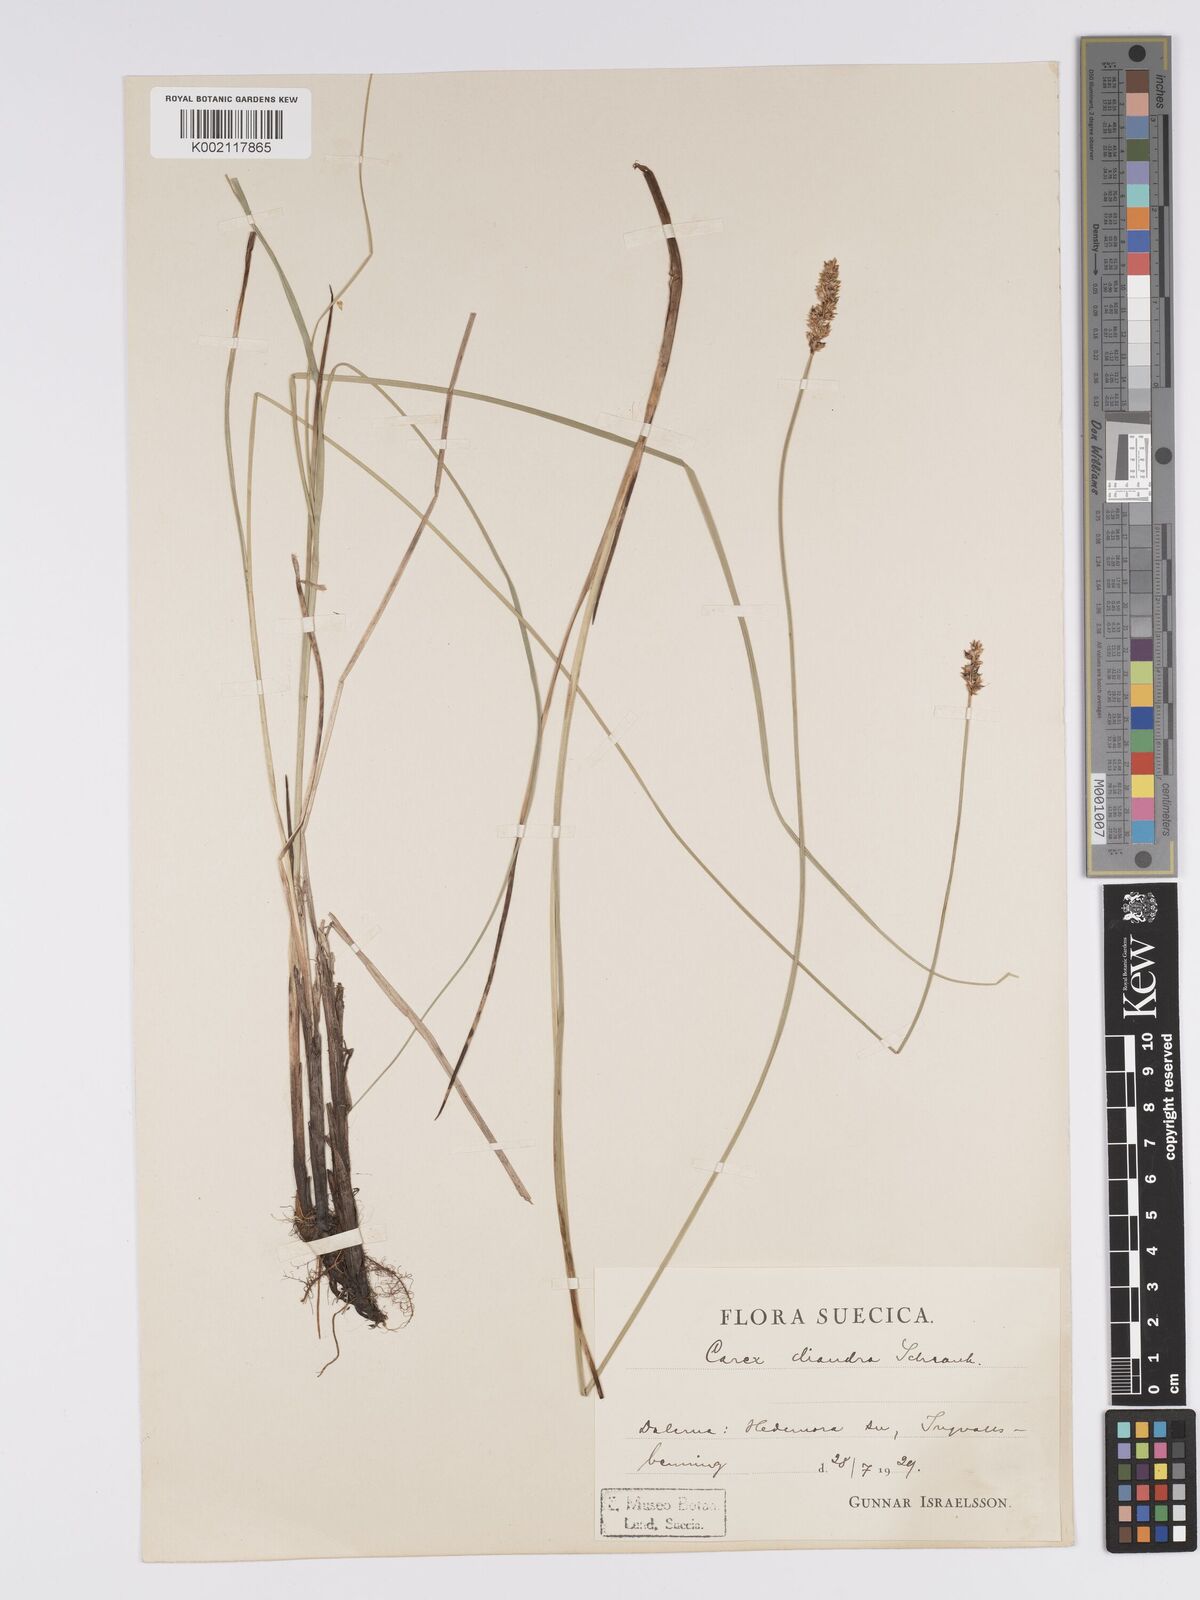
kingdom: Plantae
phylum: Tracheophyta
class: Liliopsida
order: Poales
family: Cyperaceae
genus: Carex
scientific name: Carex diandra
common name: Lesser tussock-sedge
